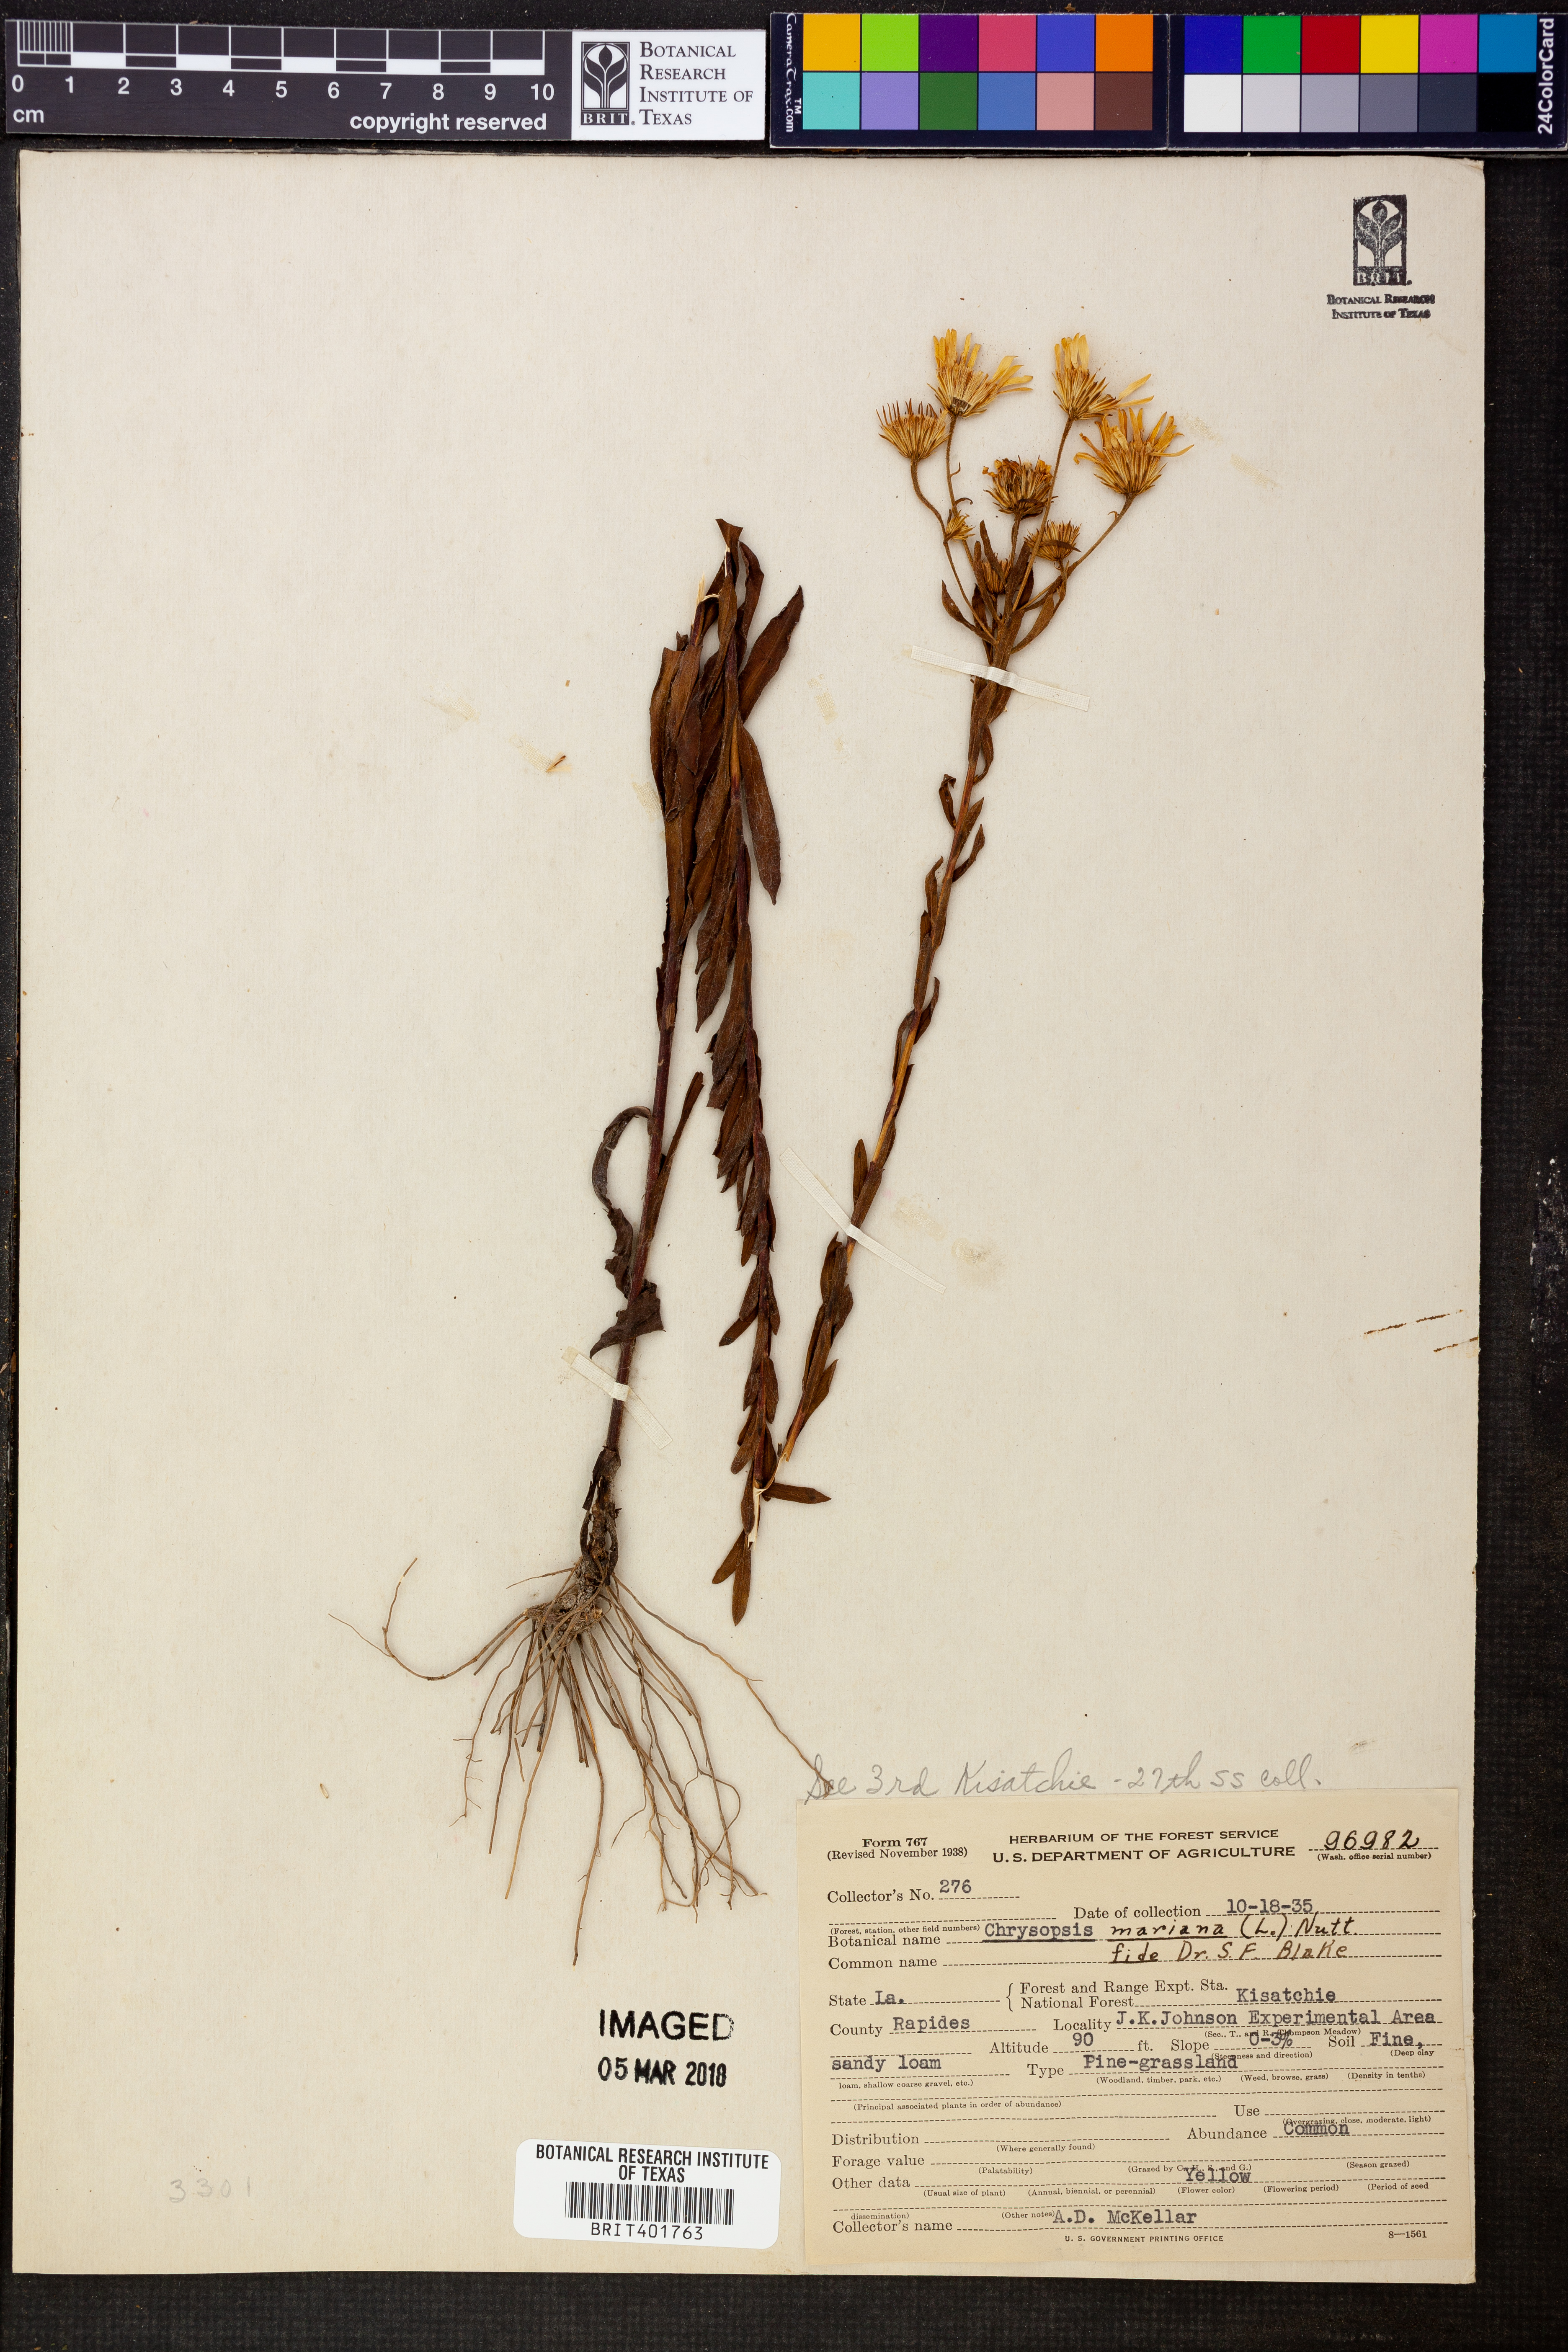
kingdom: Plantae
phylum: Tracheophyta
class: Magnoliopsida
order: Asterales
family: Asteraceae
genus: Chrysopsis
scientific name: Chrysopsis mariana
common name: Maryland golden-aster
